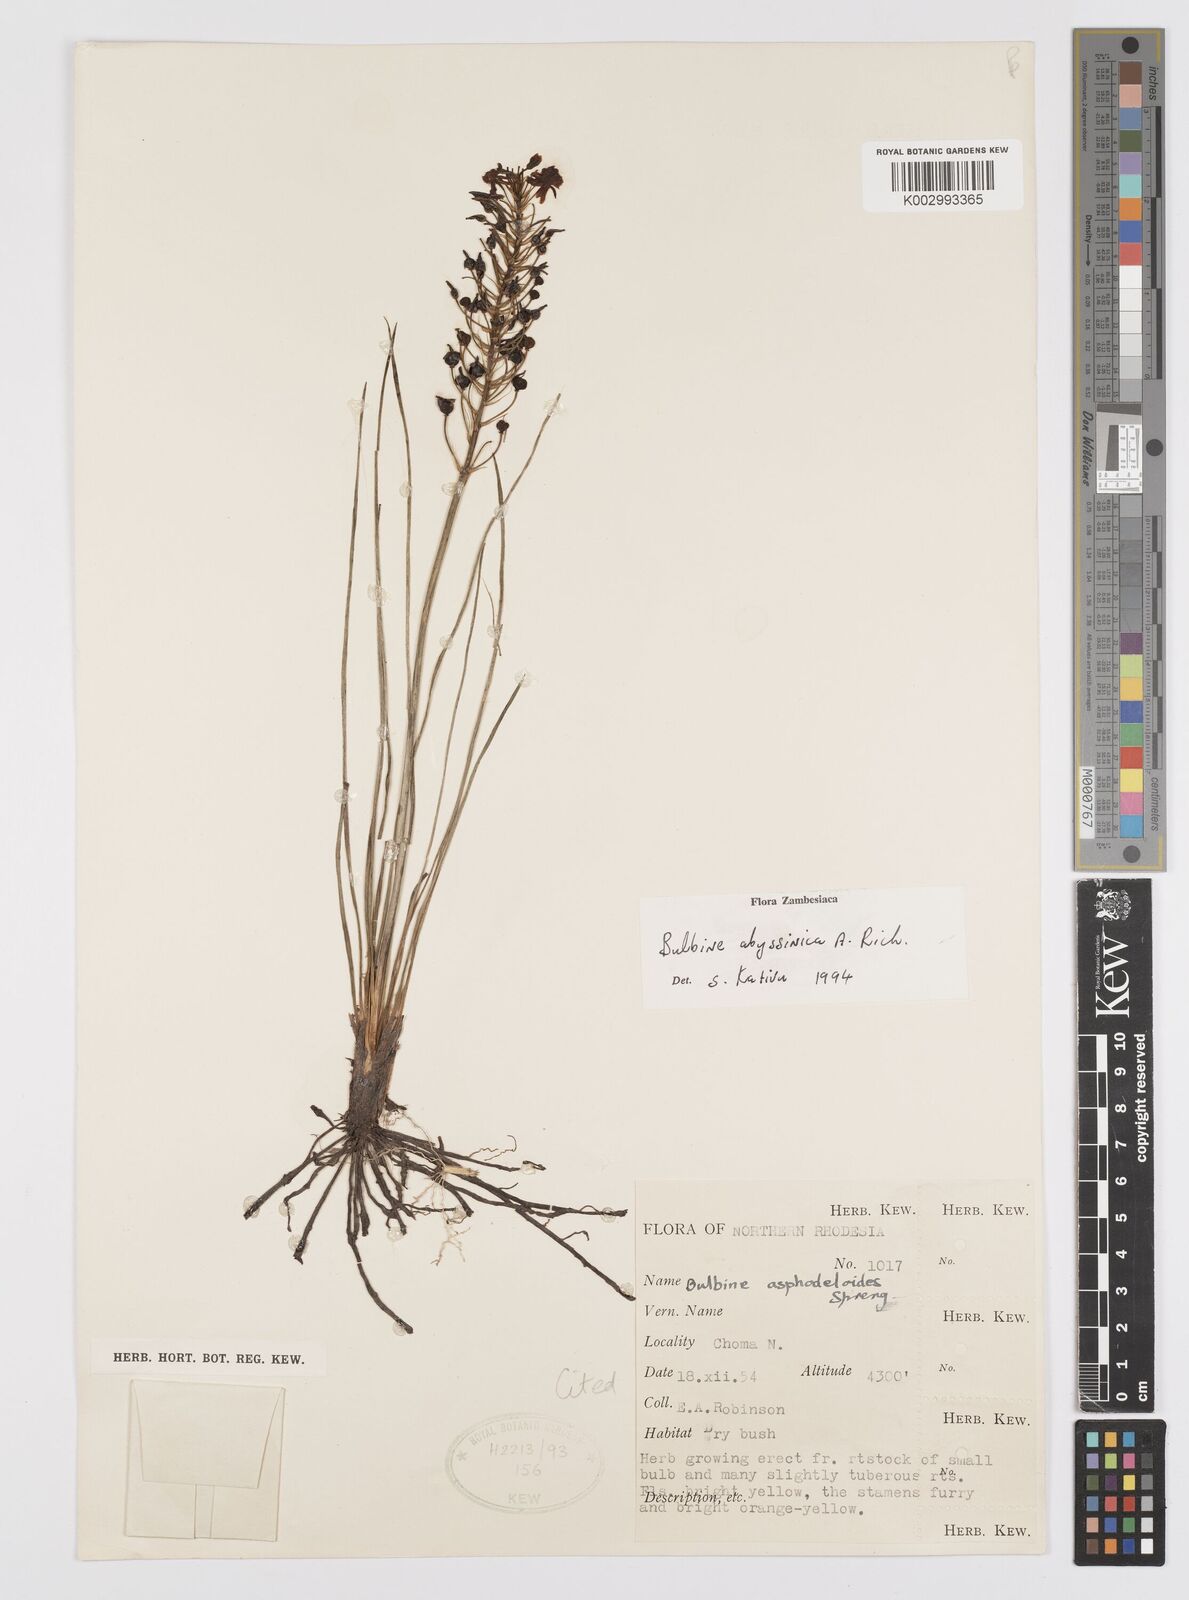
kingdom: Plantae
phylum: Tracheophyta
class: Liliopsida
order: Asparagales
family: Asphodelaceae
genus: Bulbine
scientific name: Bulbine abyssinica
